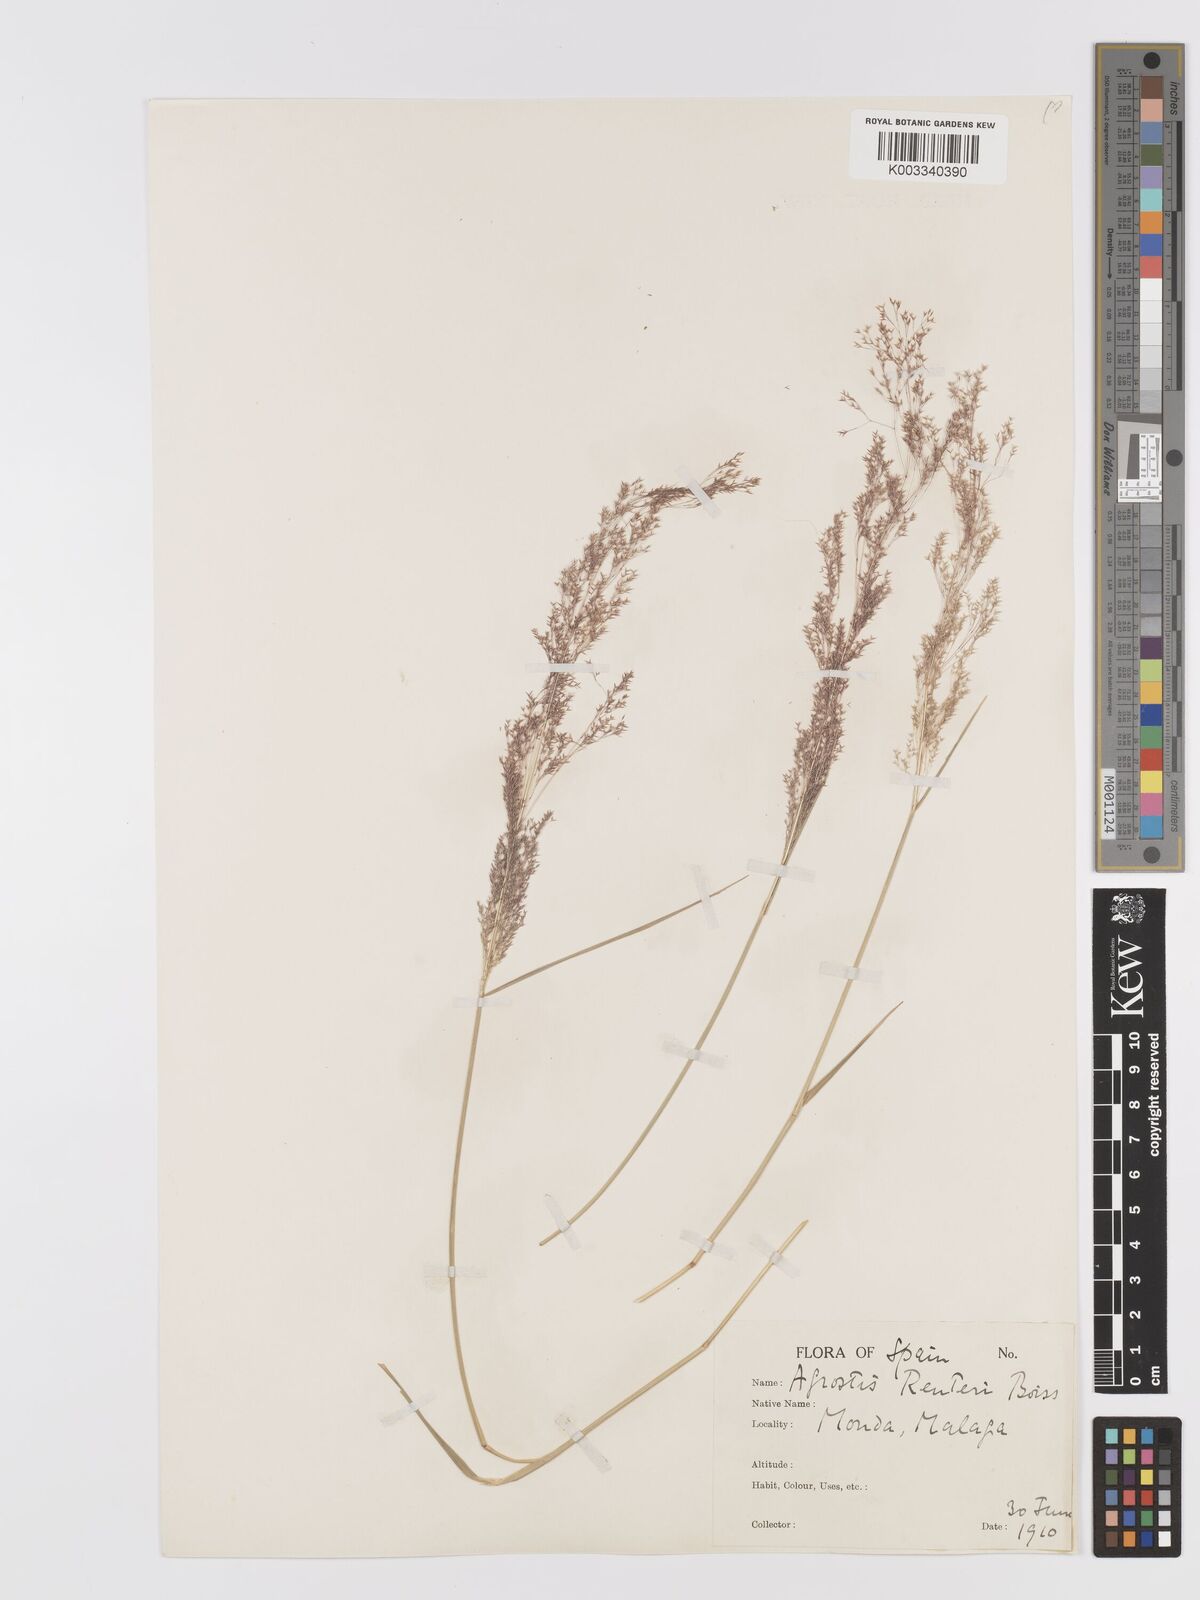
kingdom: Plantae
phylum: Tracheophyta
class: Liliopsida
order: Poales
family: Poaceae
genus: Agrostis
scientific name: Agrostis reuteri
